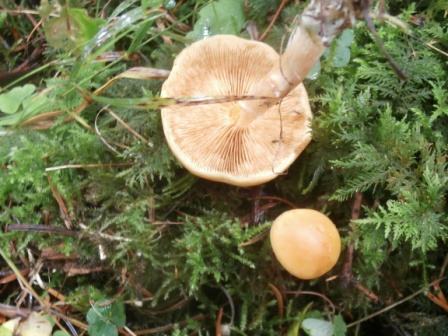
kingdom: Fungi
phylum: Basidiomycota
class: Agaricomycetes
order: Agaricales
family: Hymenogastraceae
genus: Gymnopilus
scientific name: Gymnopilus penetrans
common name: plettet flammehat
